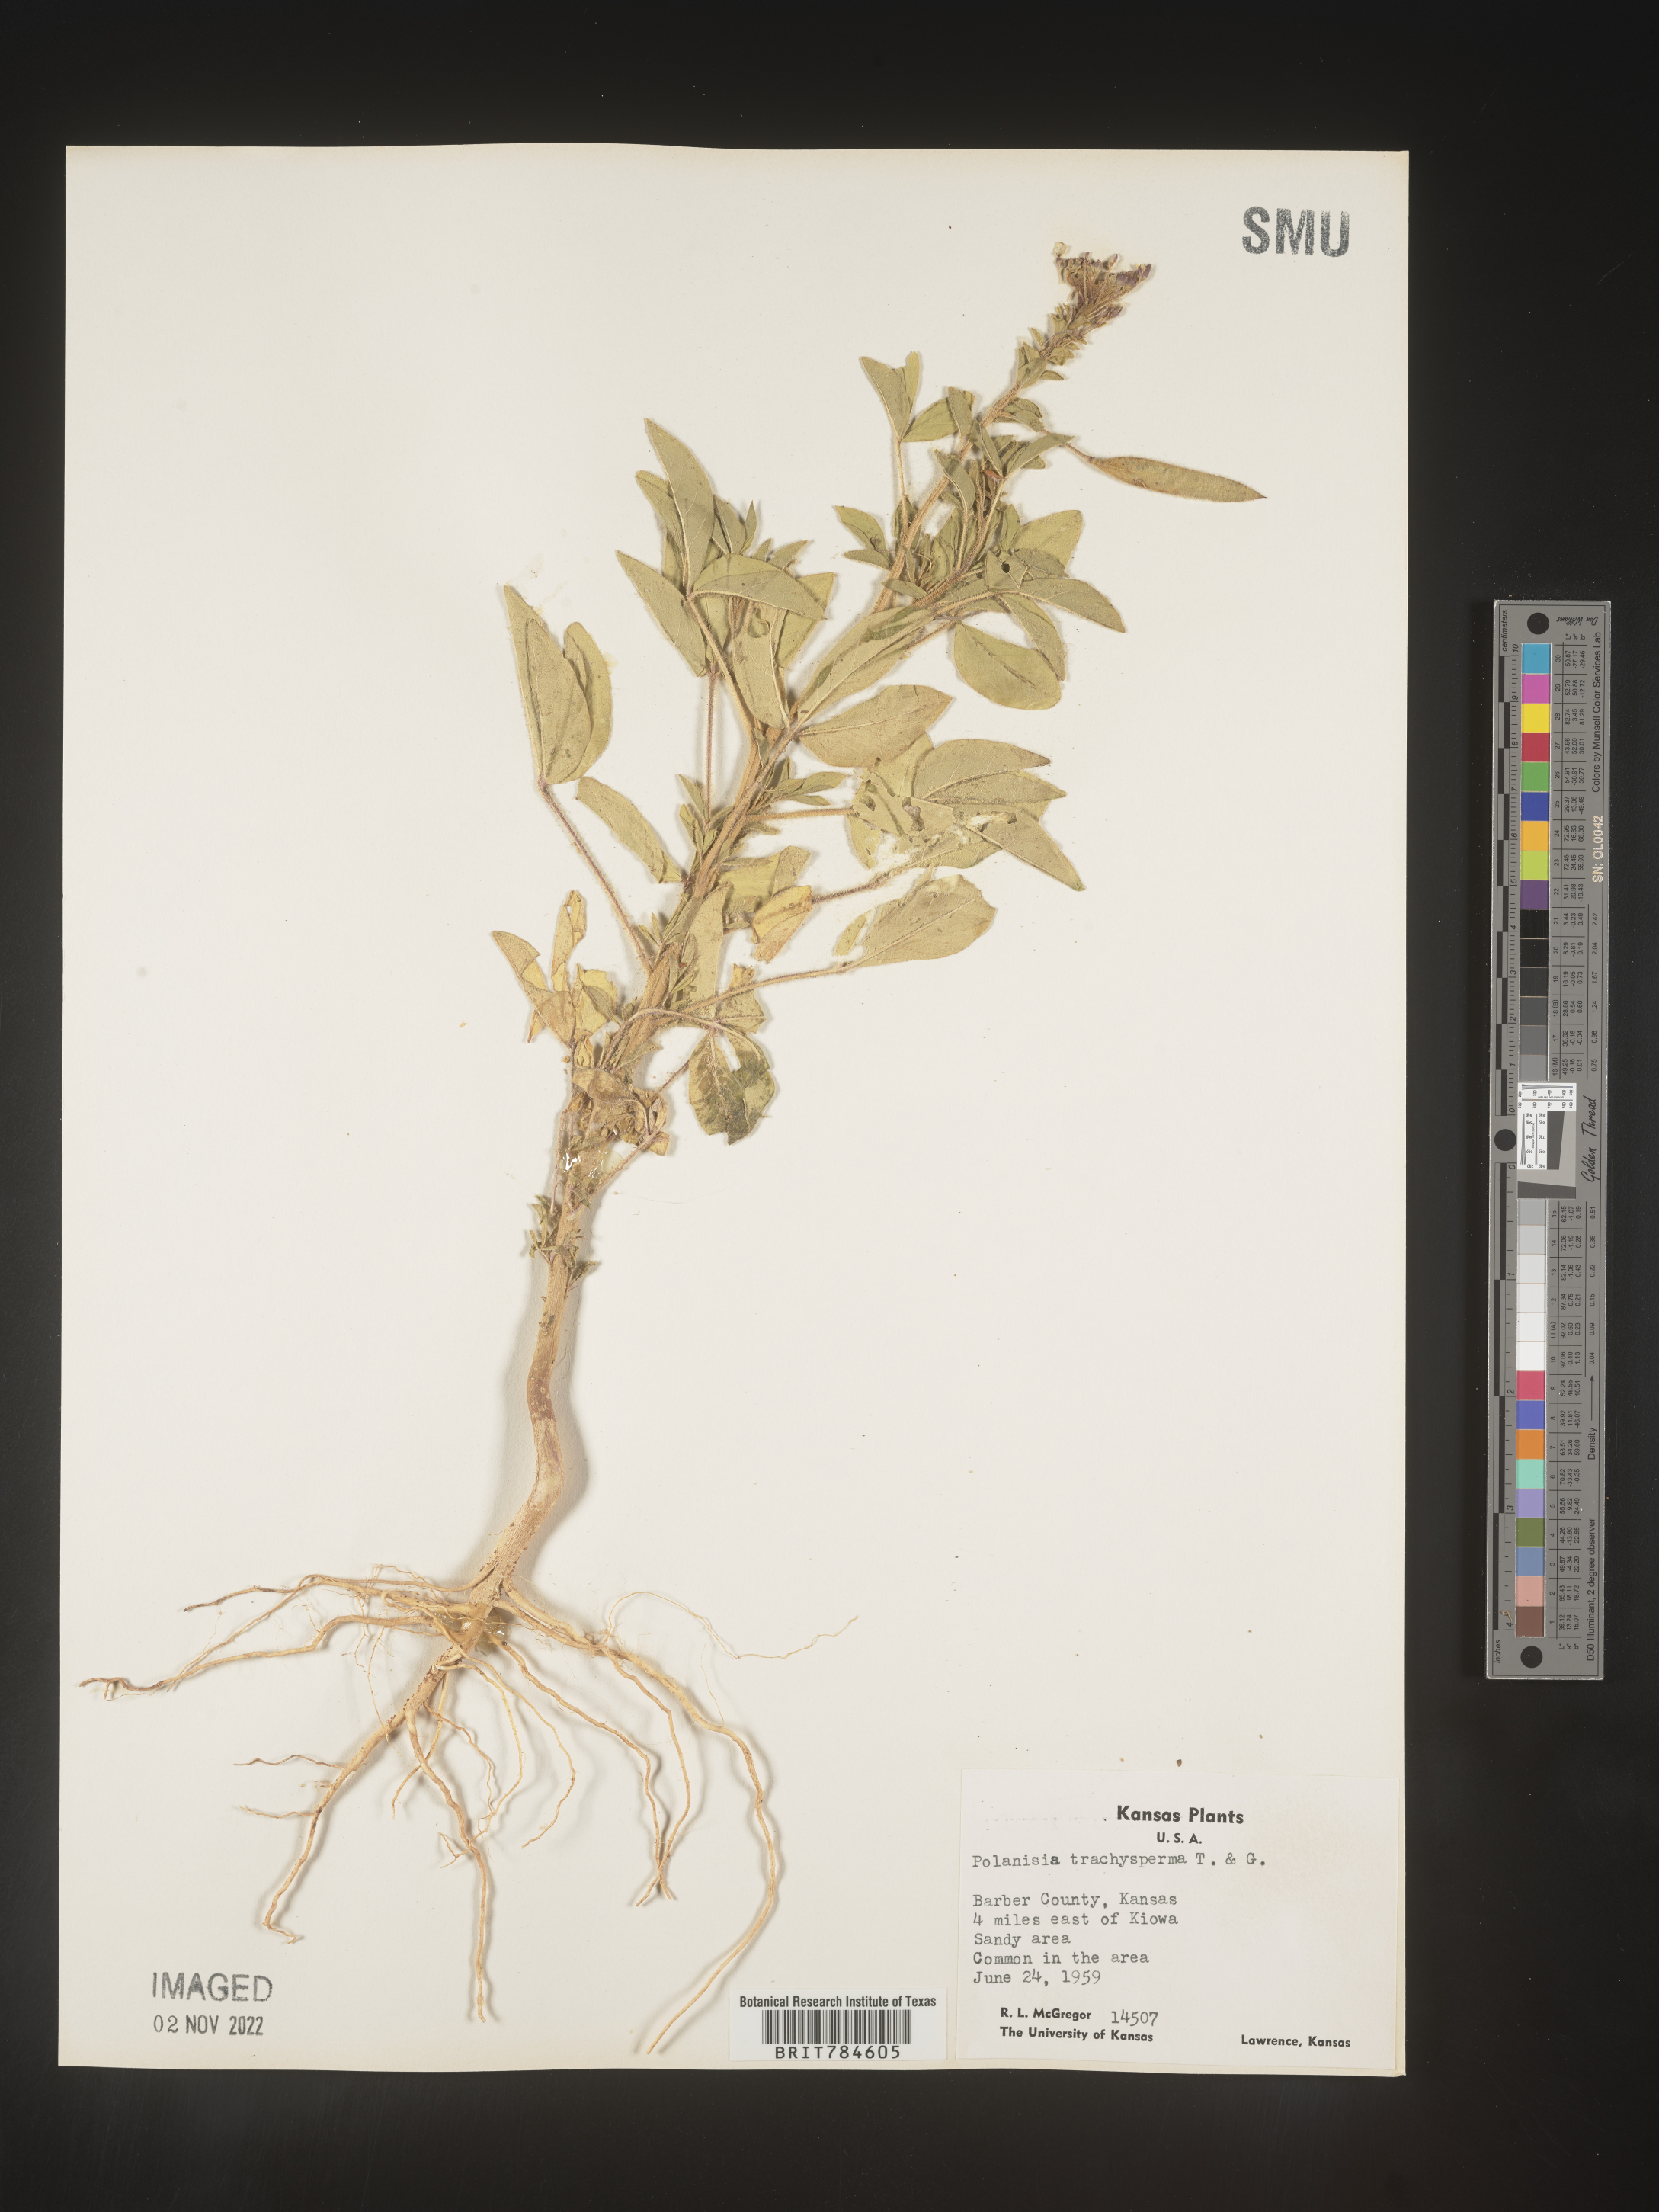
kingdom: Plantae
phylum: Tracheophyta
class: Magnoliopsida
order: Brassicales
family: Cleomaceae
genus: Polanisia
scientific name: Polanisia dodecandra
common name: Clammyweed
